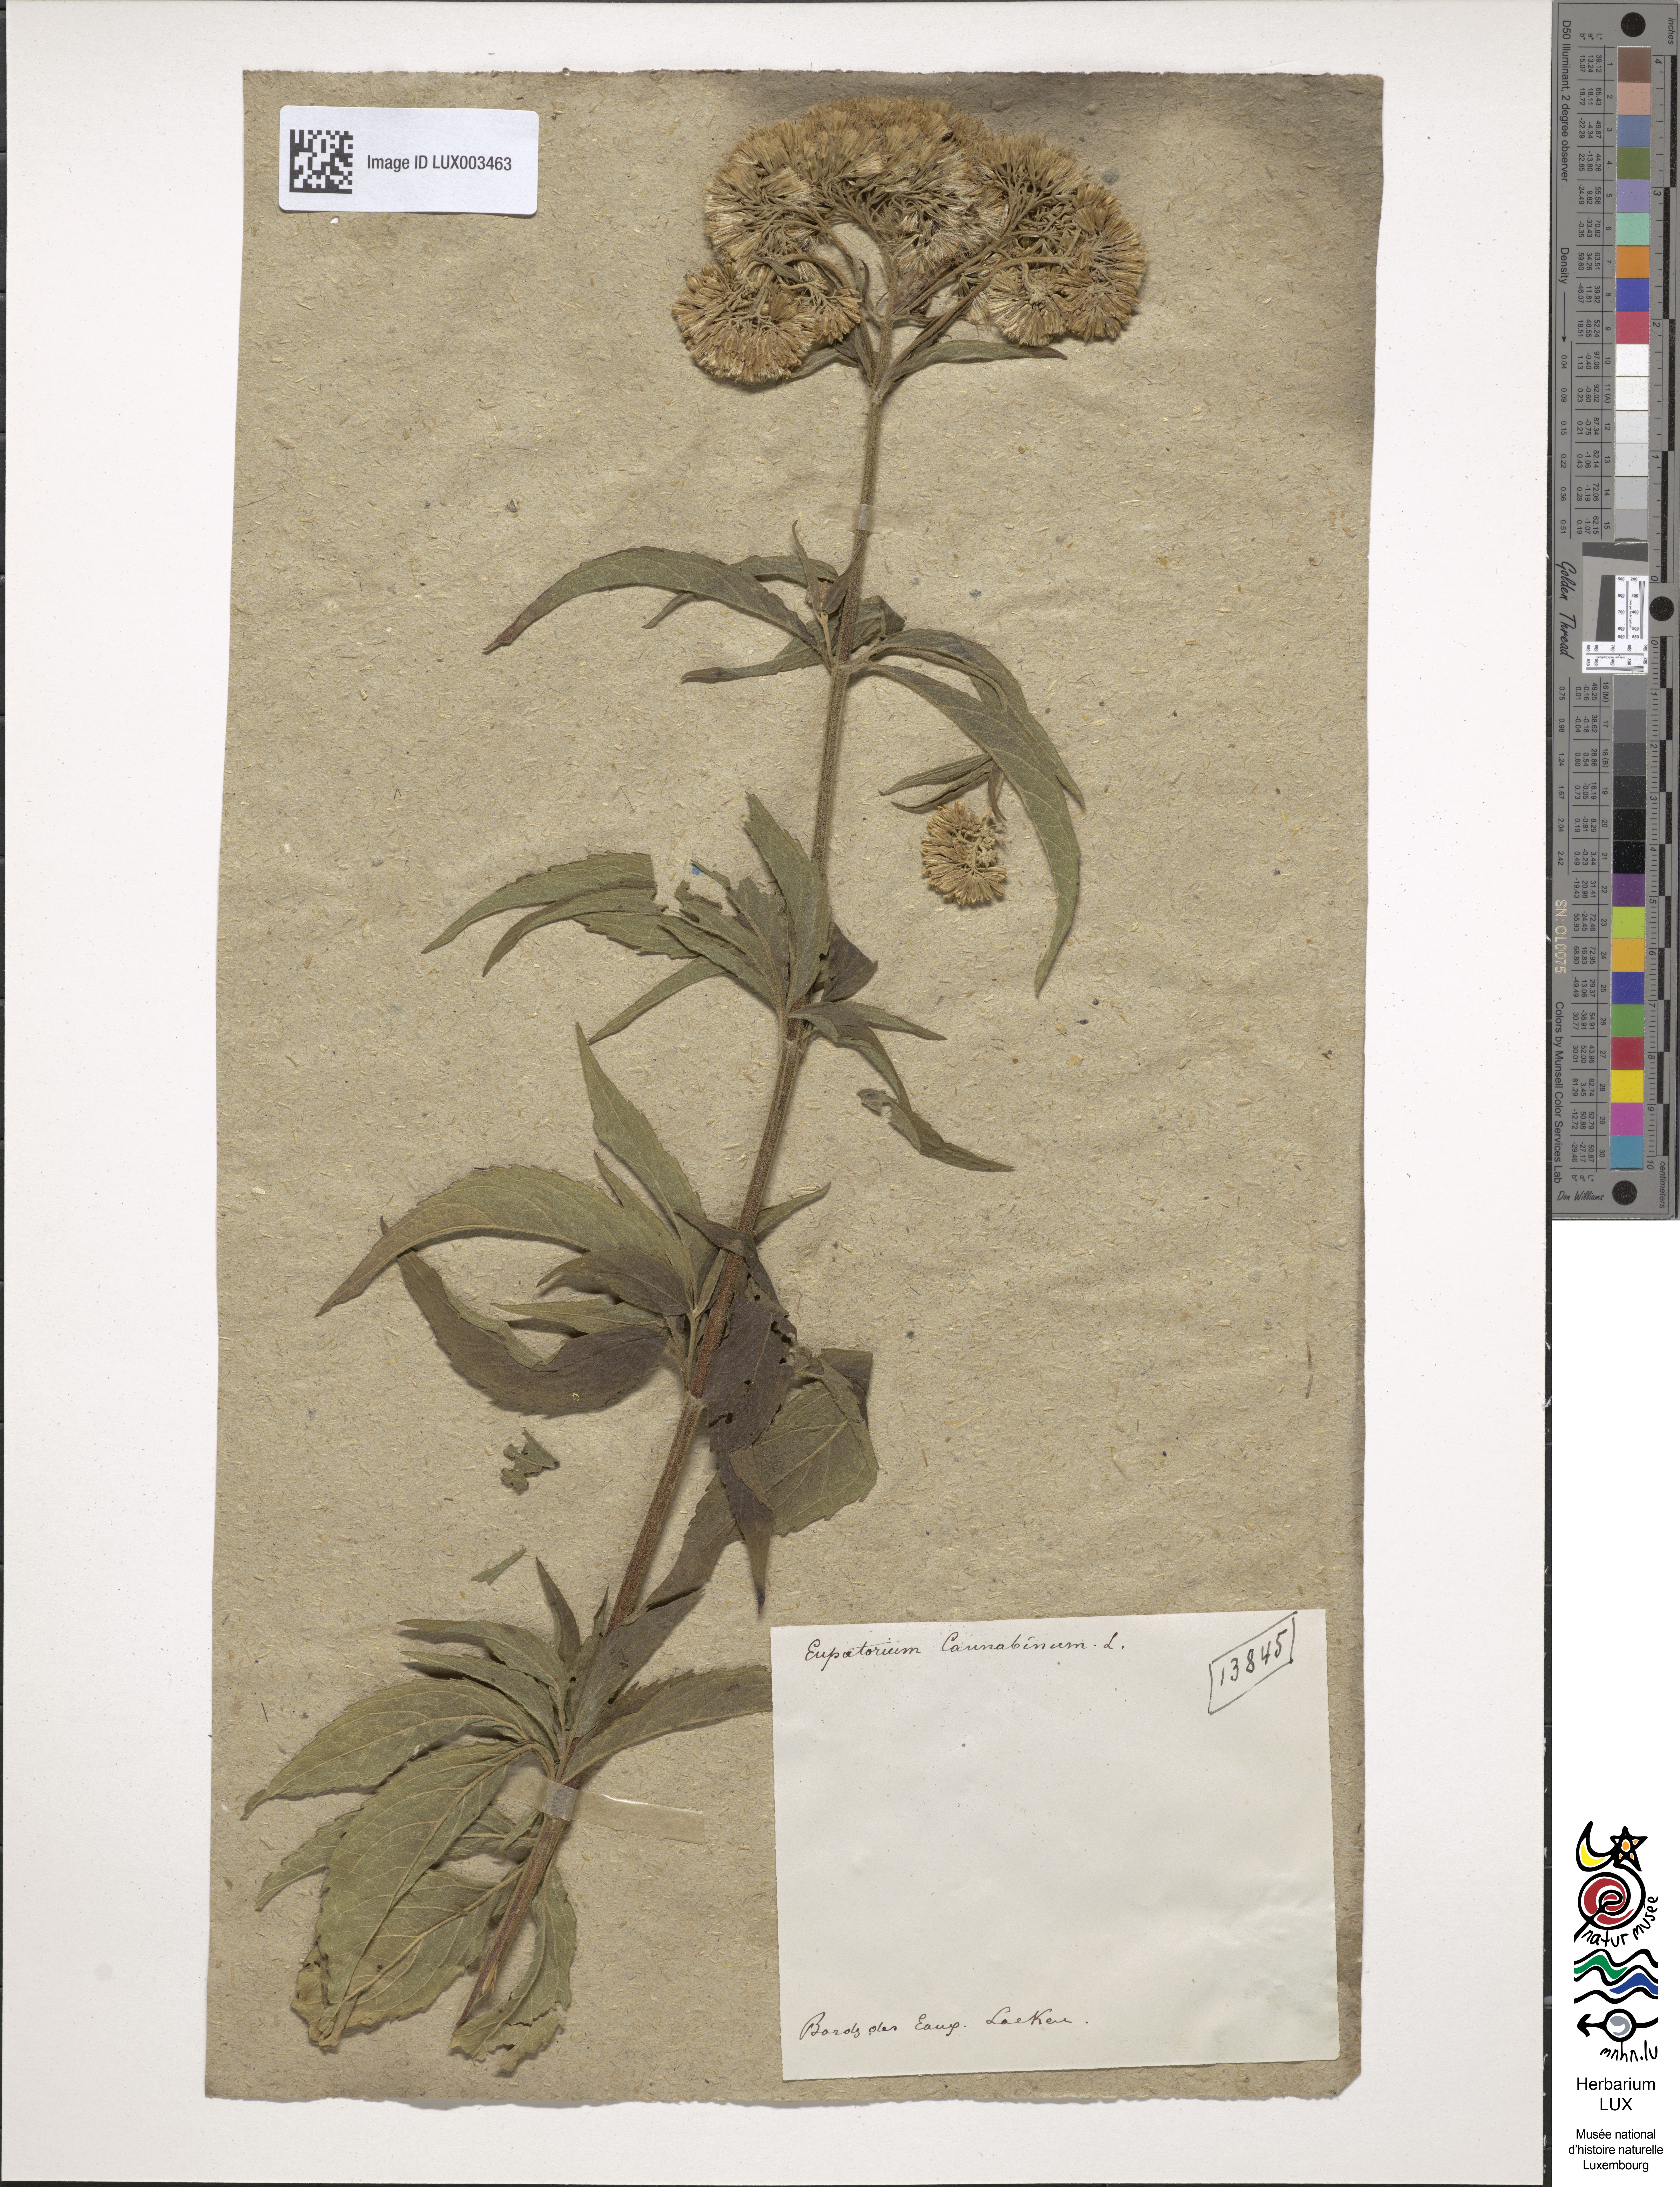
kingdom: Plantae
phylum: Tracheophyta
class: Magnoliopsida
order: Asterales
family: Asteraceae
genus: Eupatorium
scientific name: Eupatorium cannabinum
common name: Hemp-agrimony
